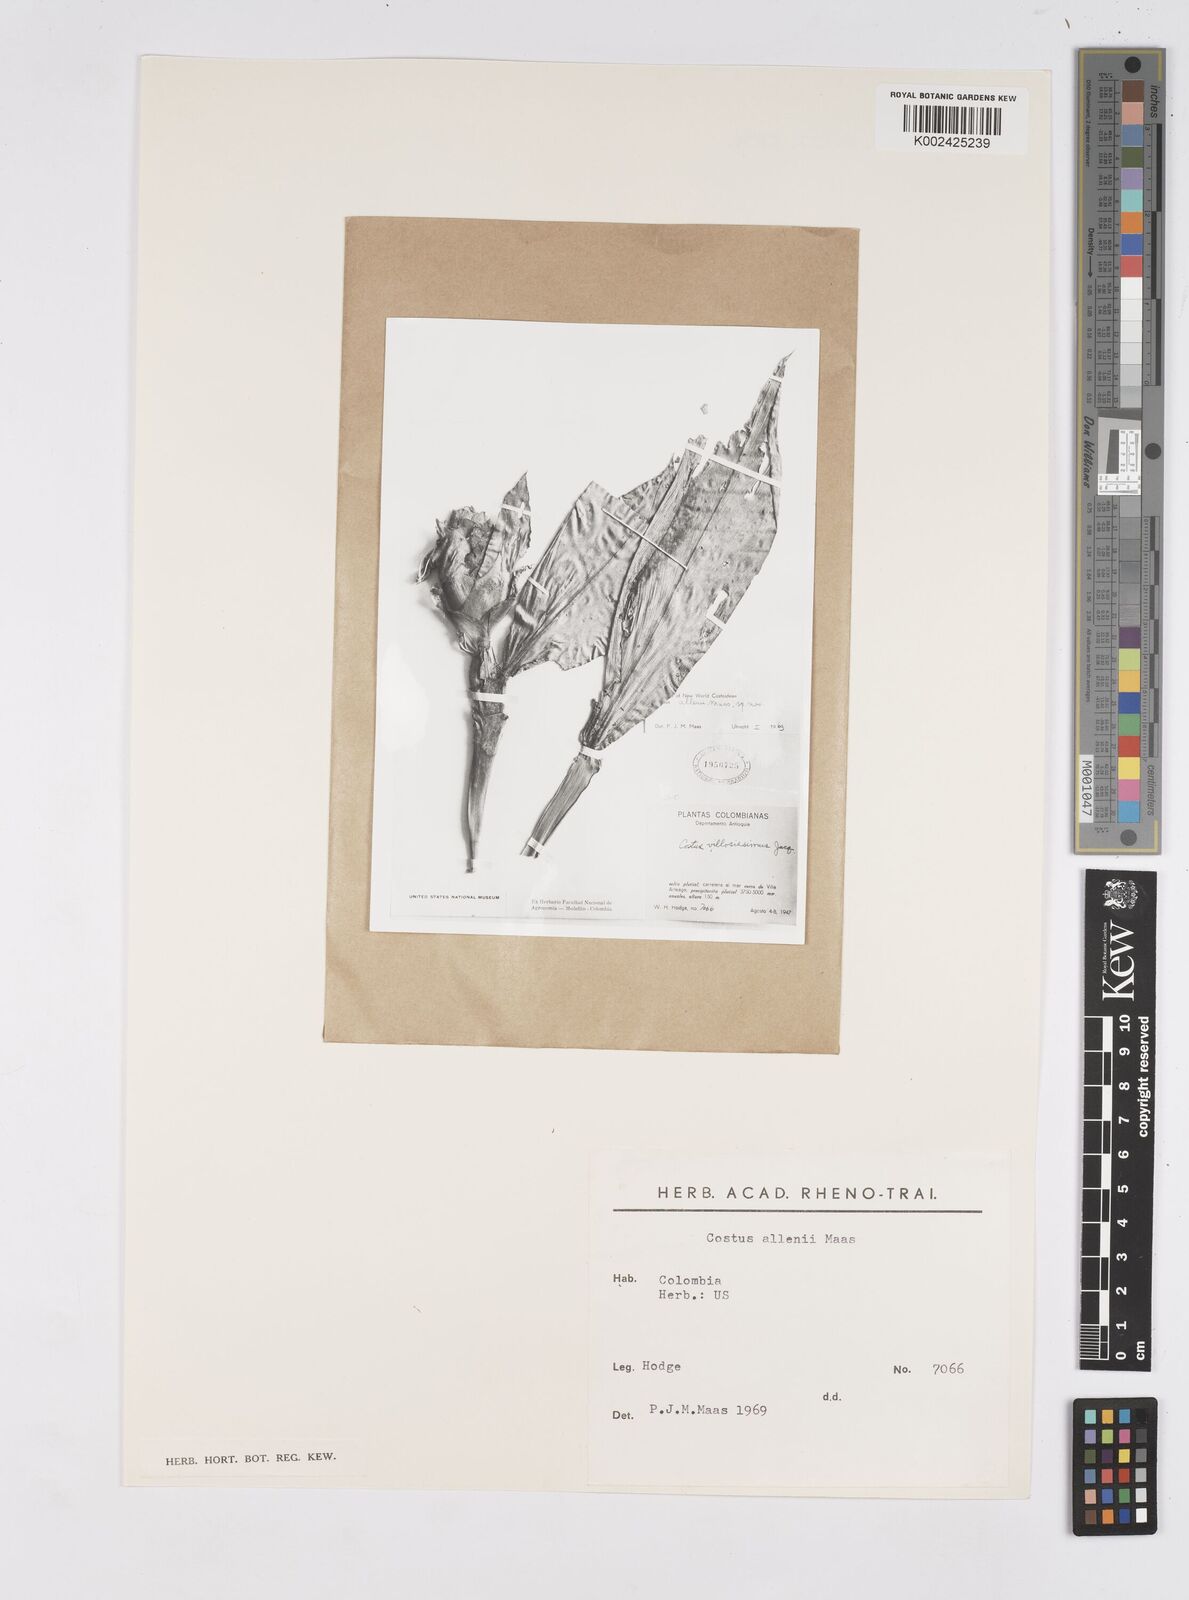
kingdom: Plantae
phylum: Tracheophyta
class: Liliopsida
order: Zingiberales
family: Costaceae
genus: Costus
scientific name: Costus allenii
